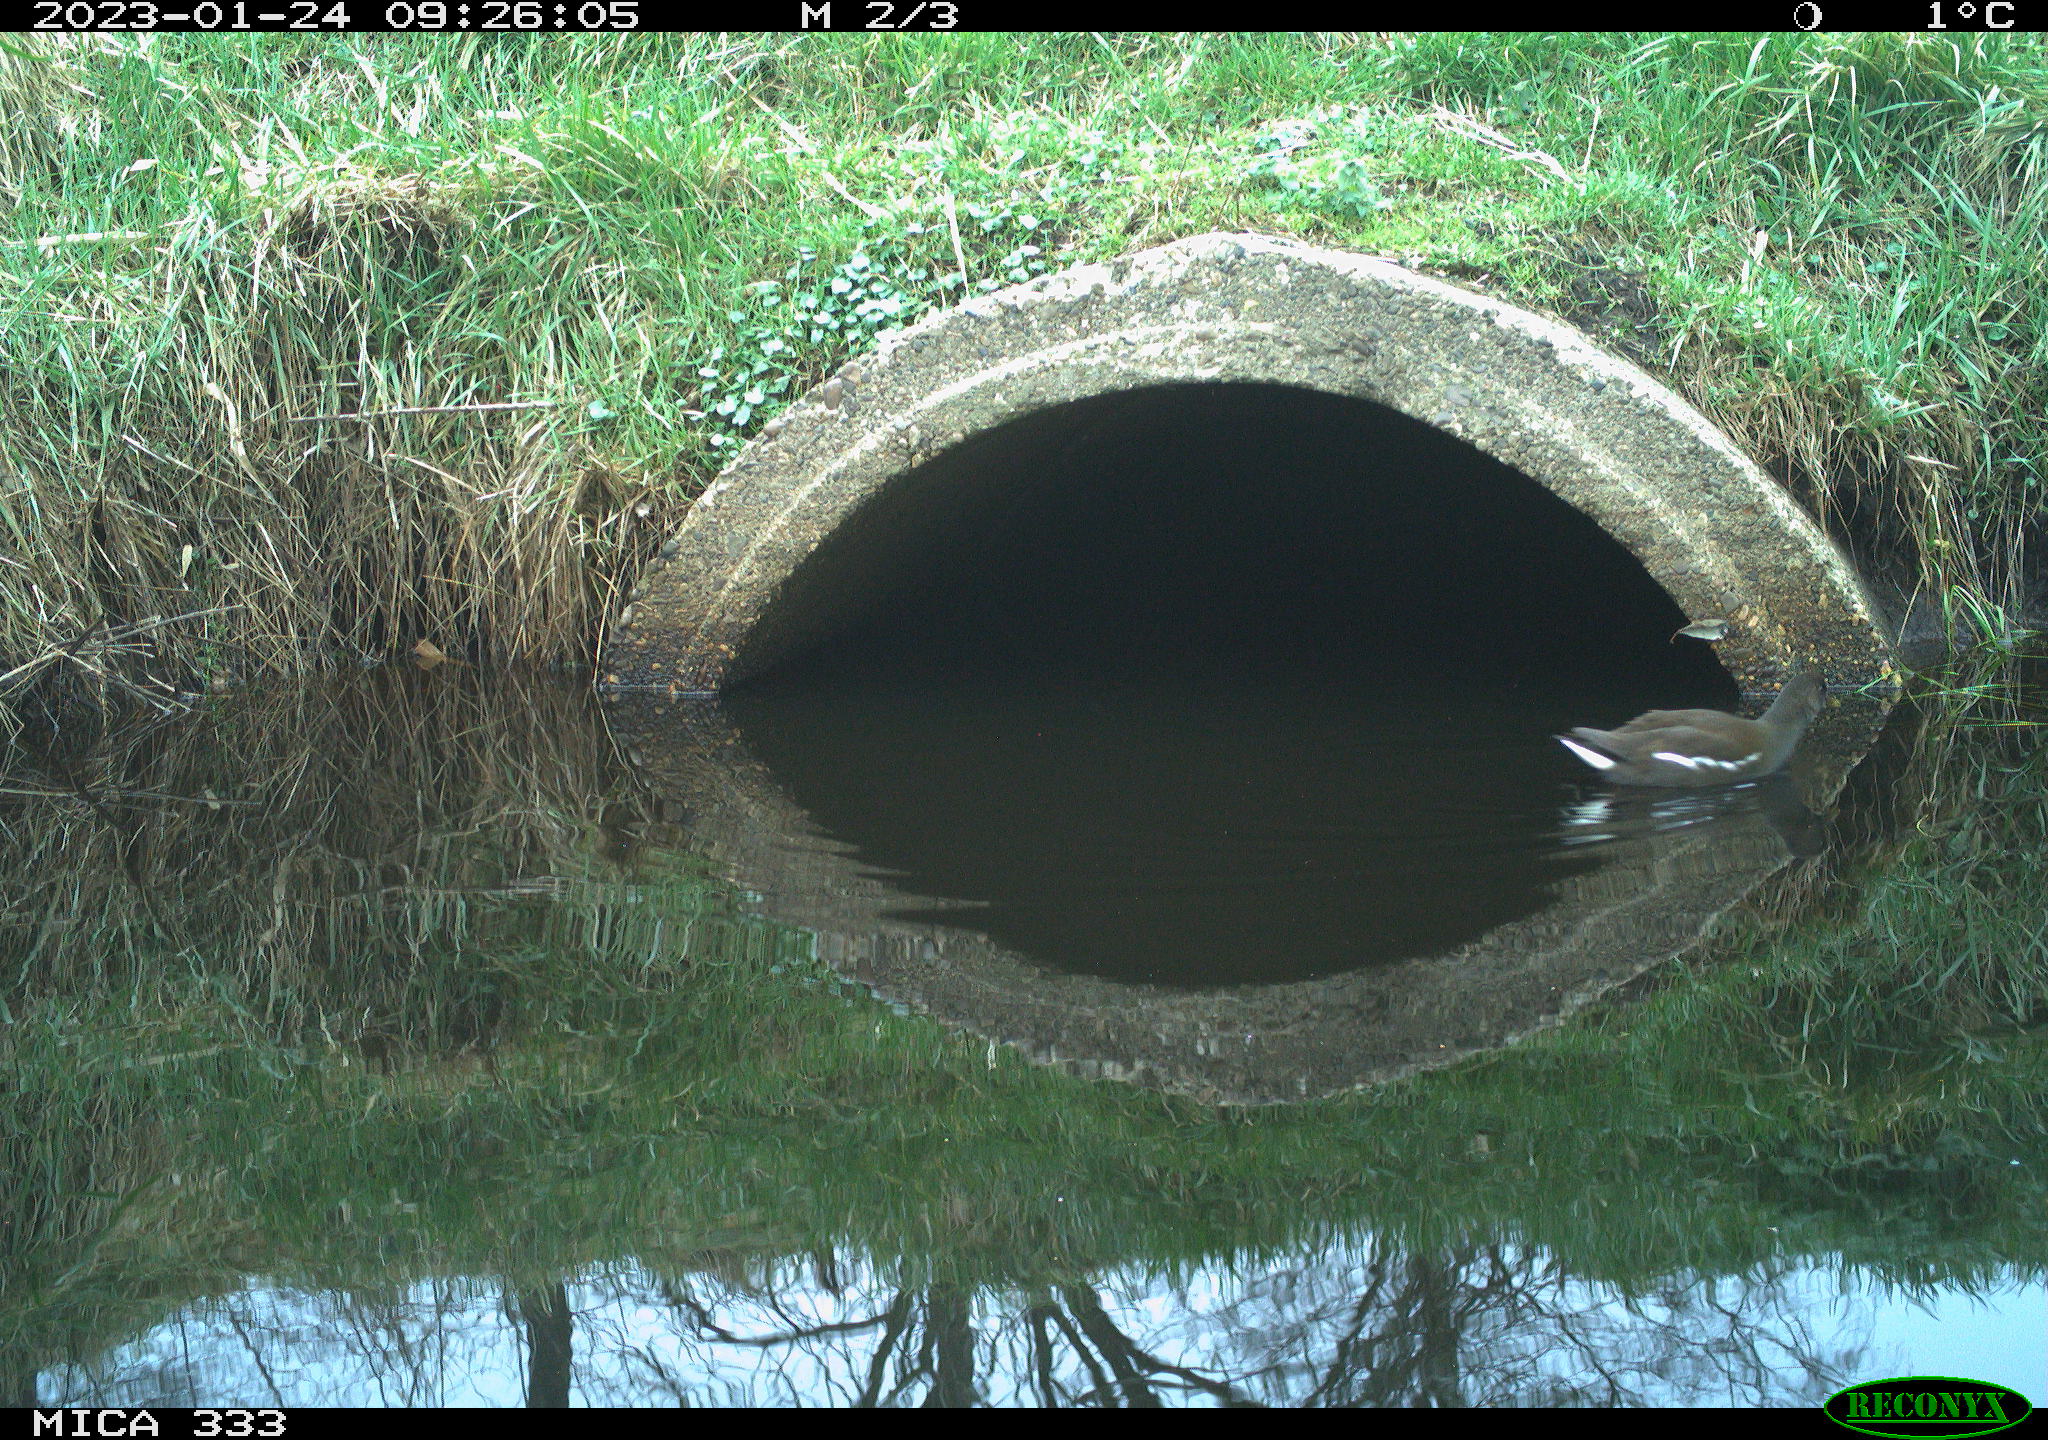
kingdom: Animalia
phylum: Chordata
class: Aves
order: Gruiformes
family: Rallidae
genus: Gallinula
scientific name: Gallinula chloropus
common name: Common moorhen
